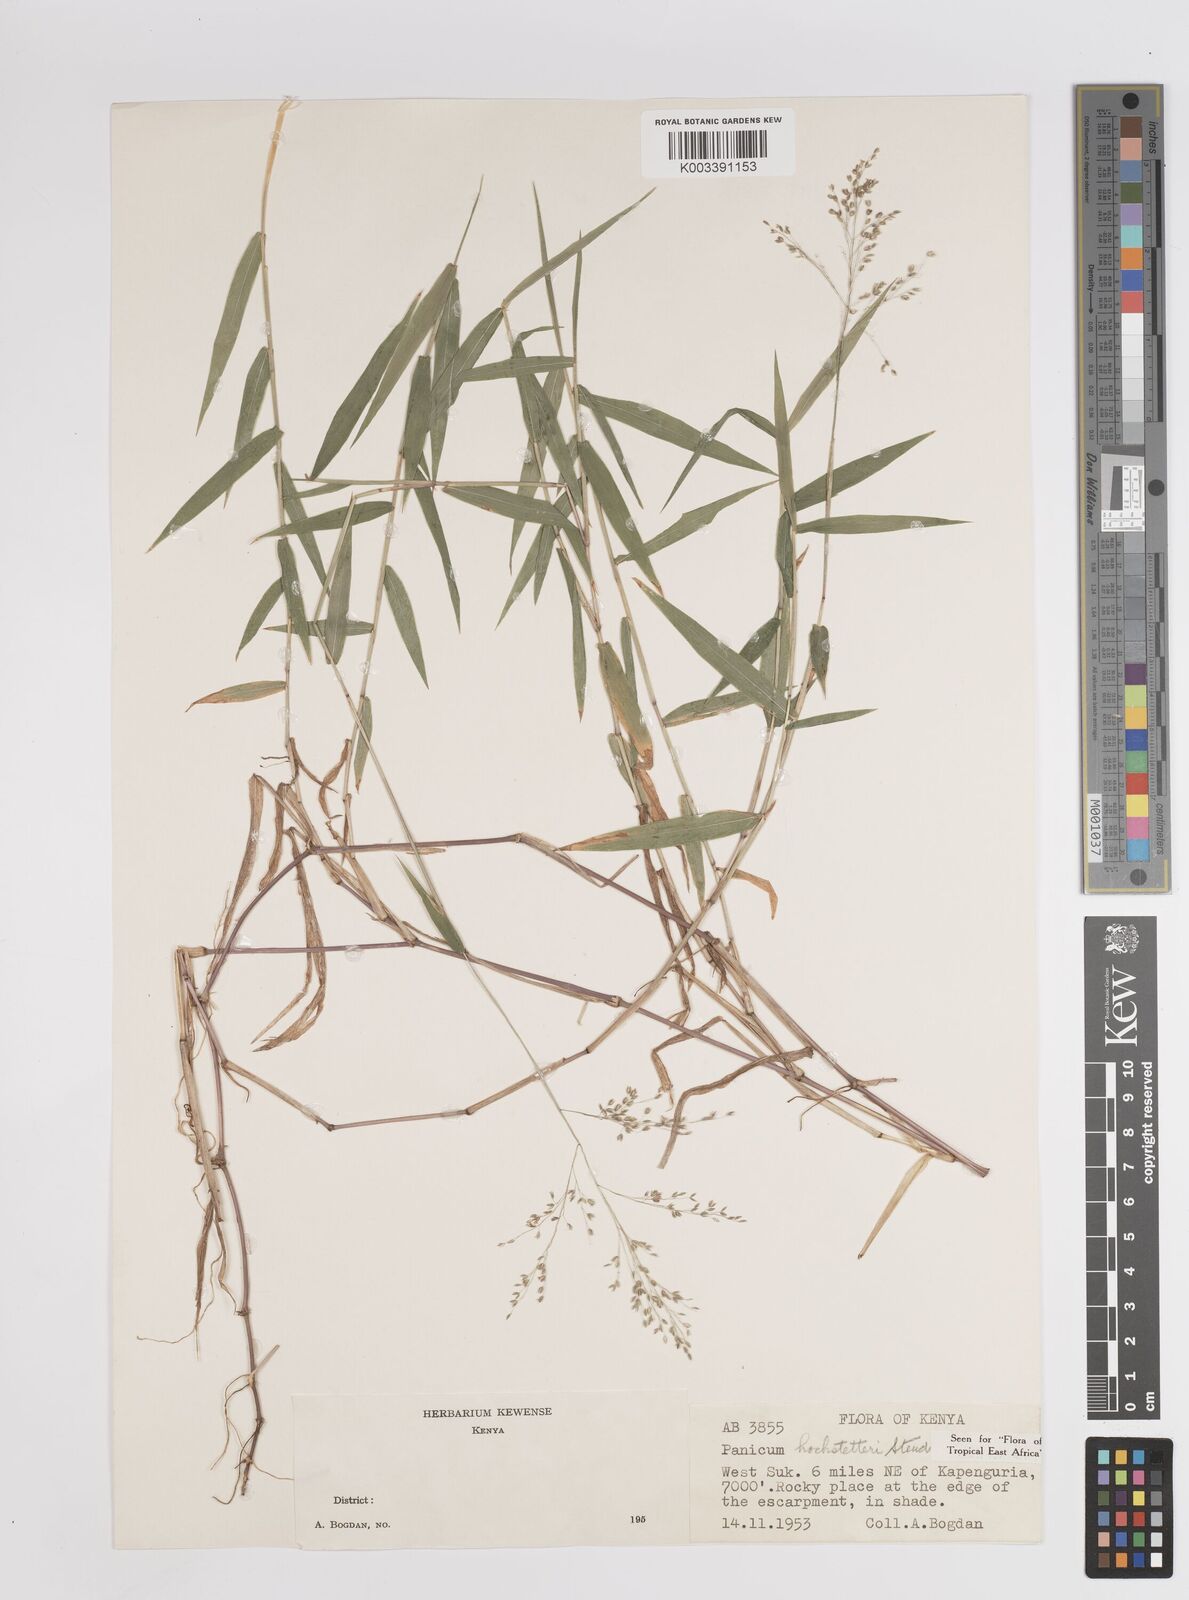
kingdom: Plantae
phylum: Tracheophyta
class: Liliopsida
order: Poales
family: Poaceae
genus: Panicum
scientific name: Panicum hochstetteri
